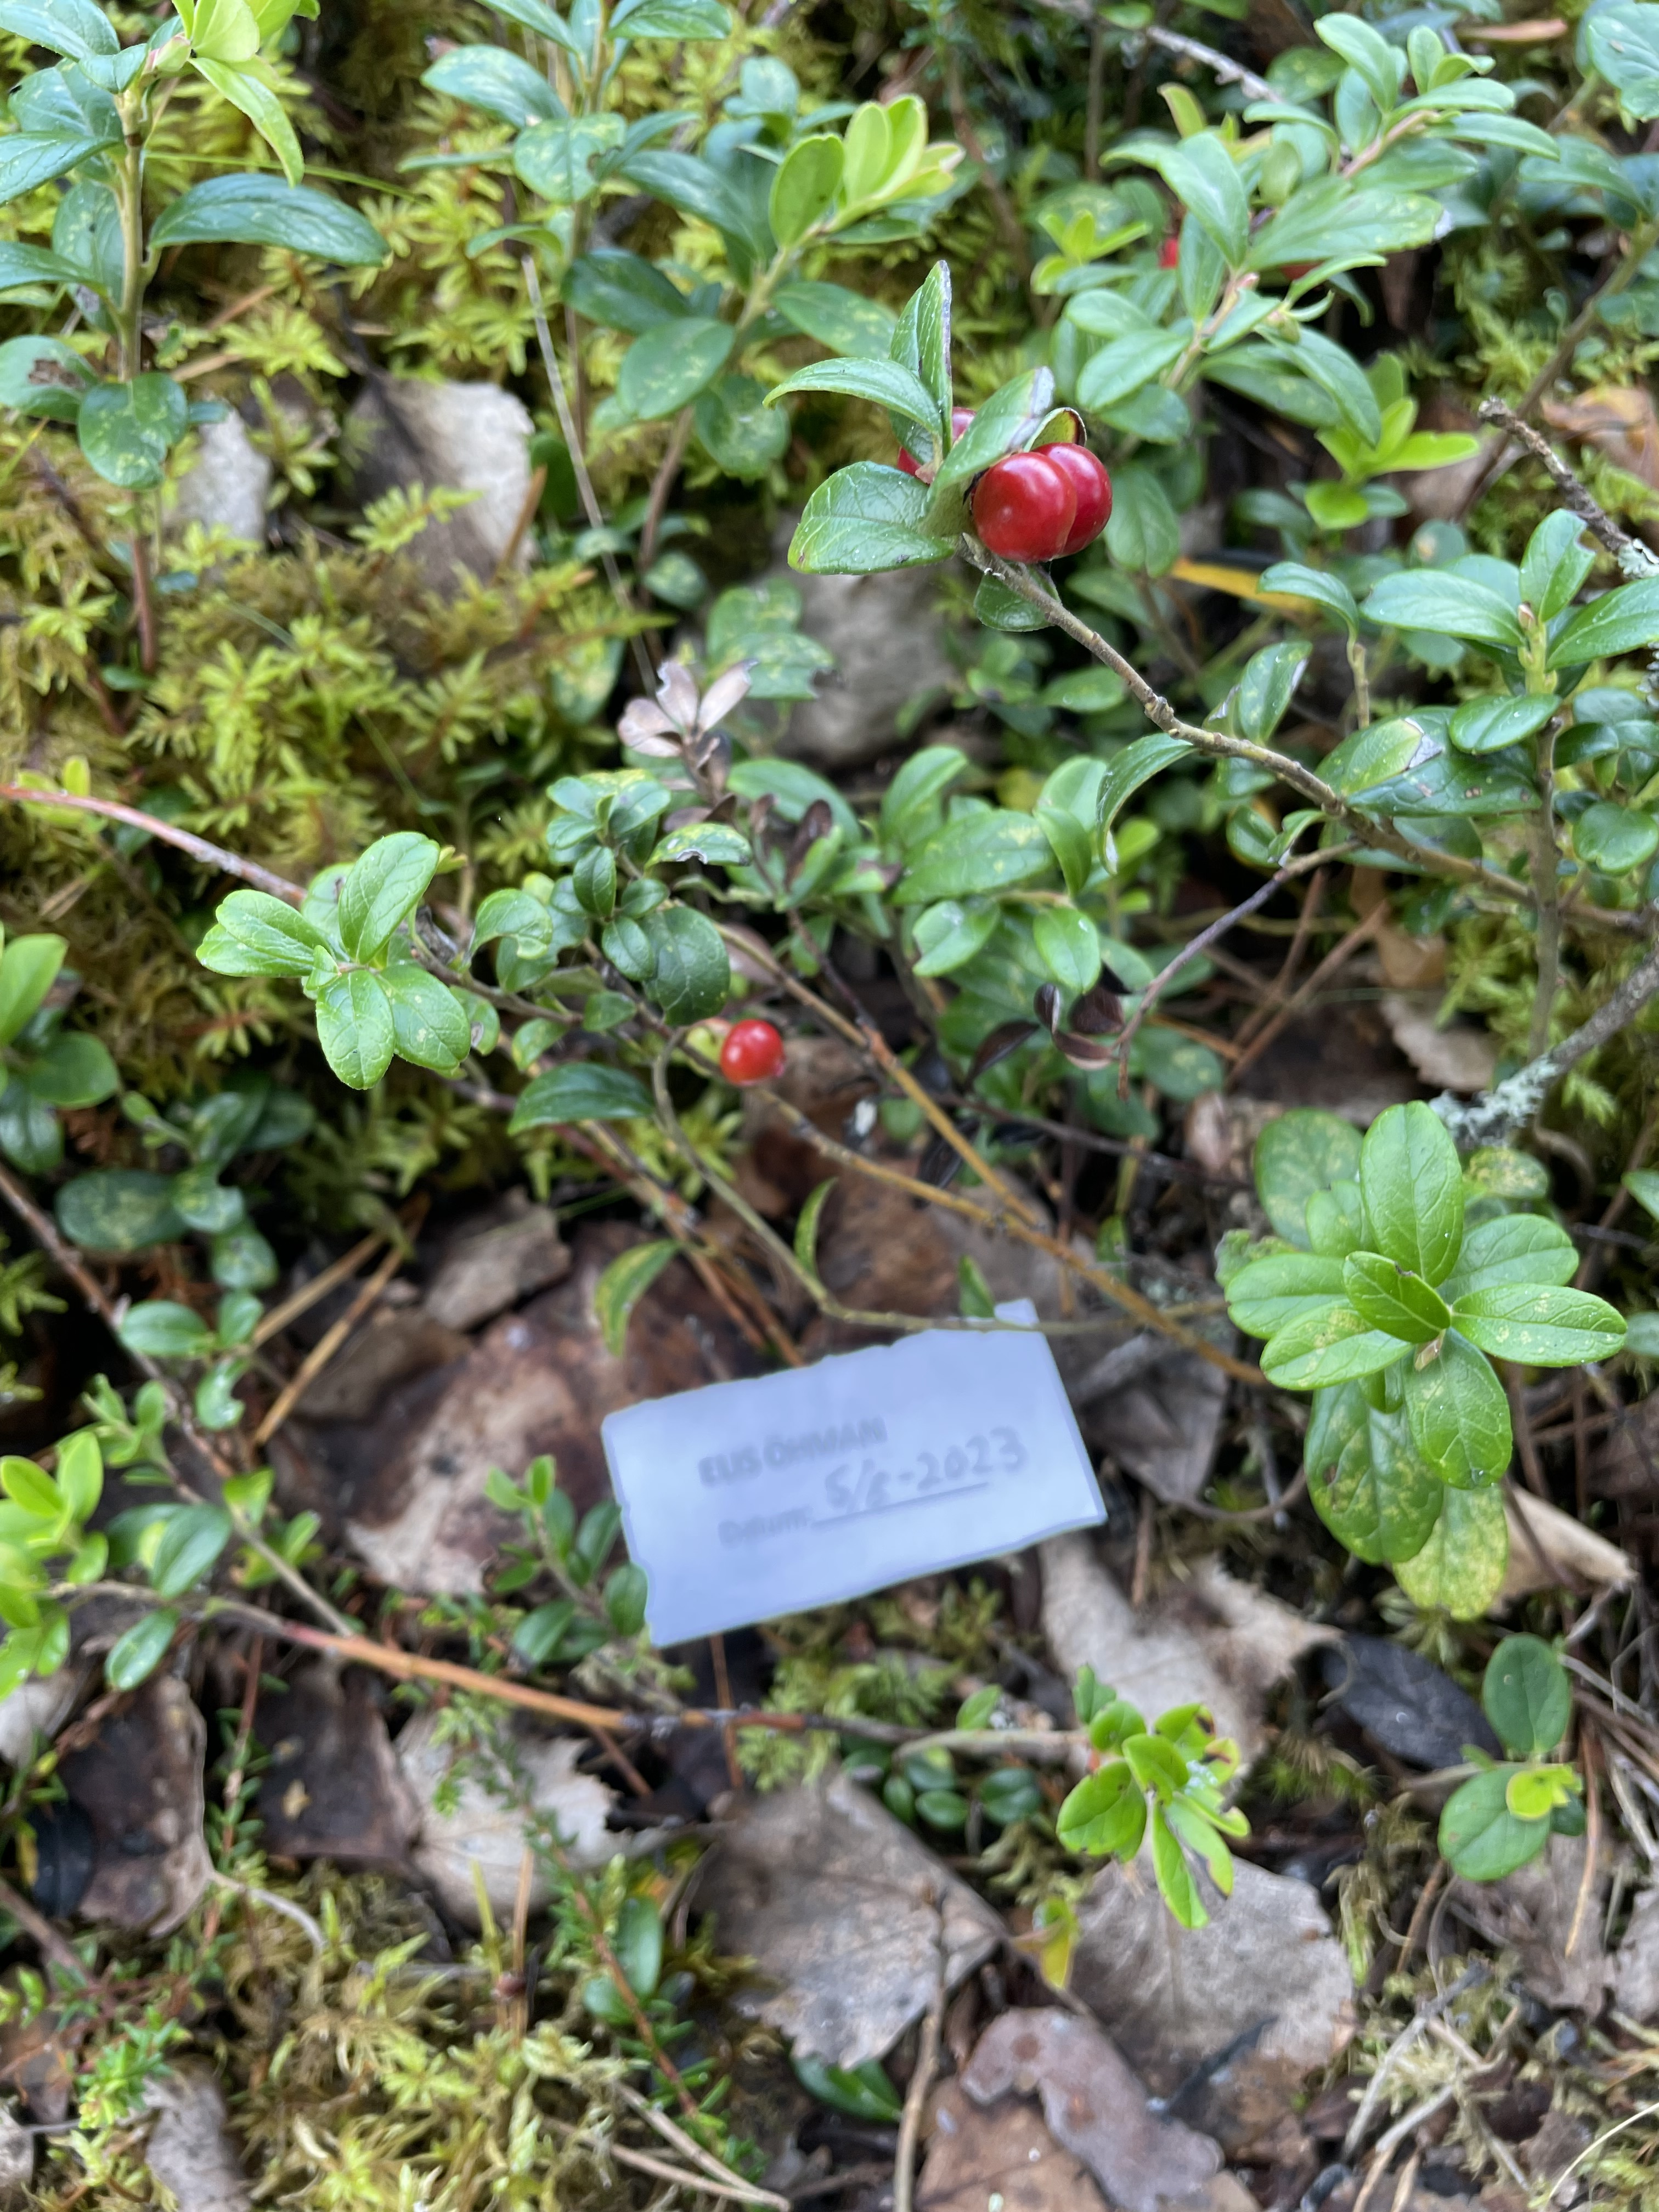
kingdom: Plantae
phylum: Tracheophyta
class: Magnoliopsida
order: Ericales
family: Ericaceae
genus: Vaccinium
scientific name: Vaccinium vitis-idaea
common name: Cowberry
